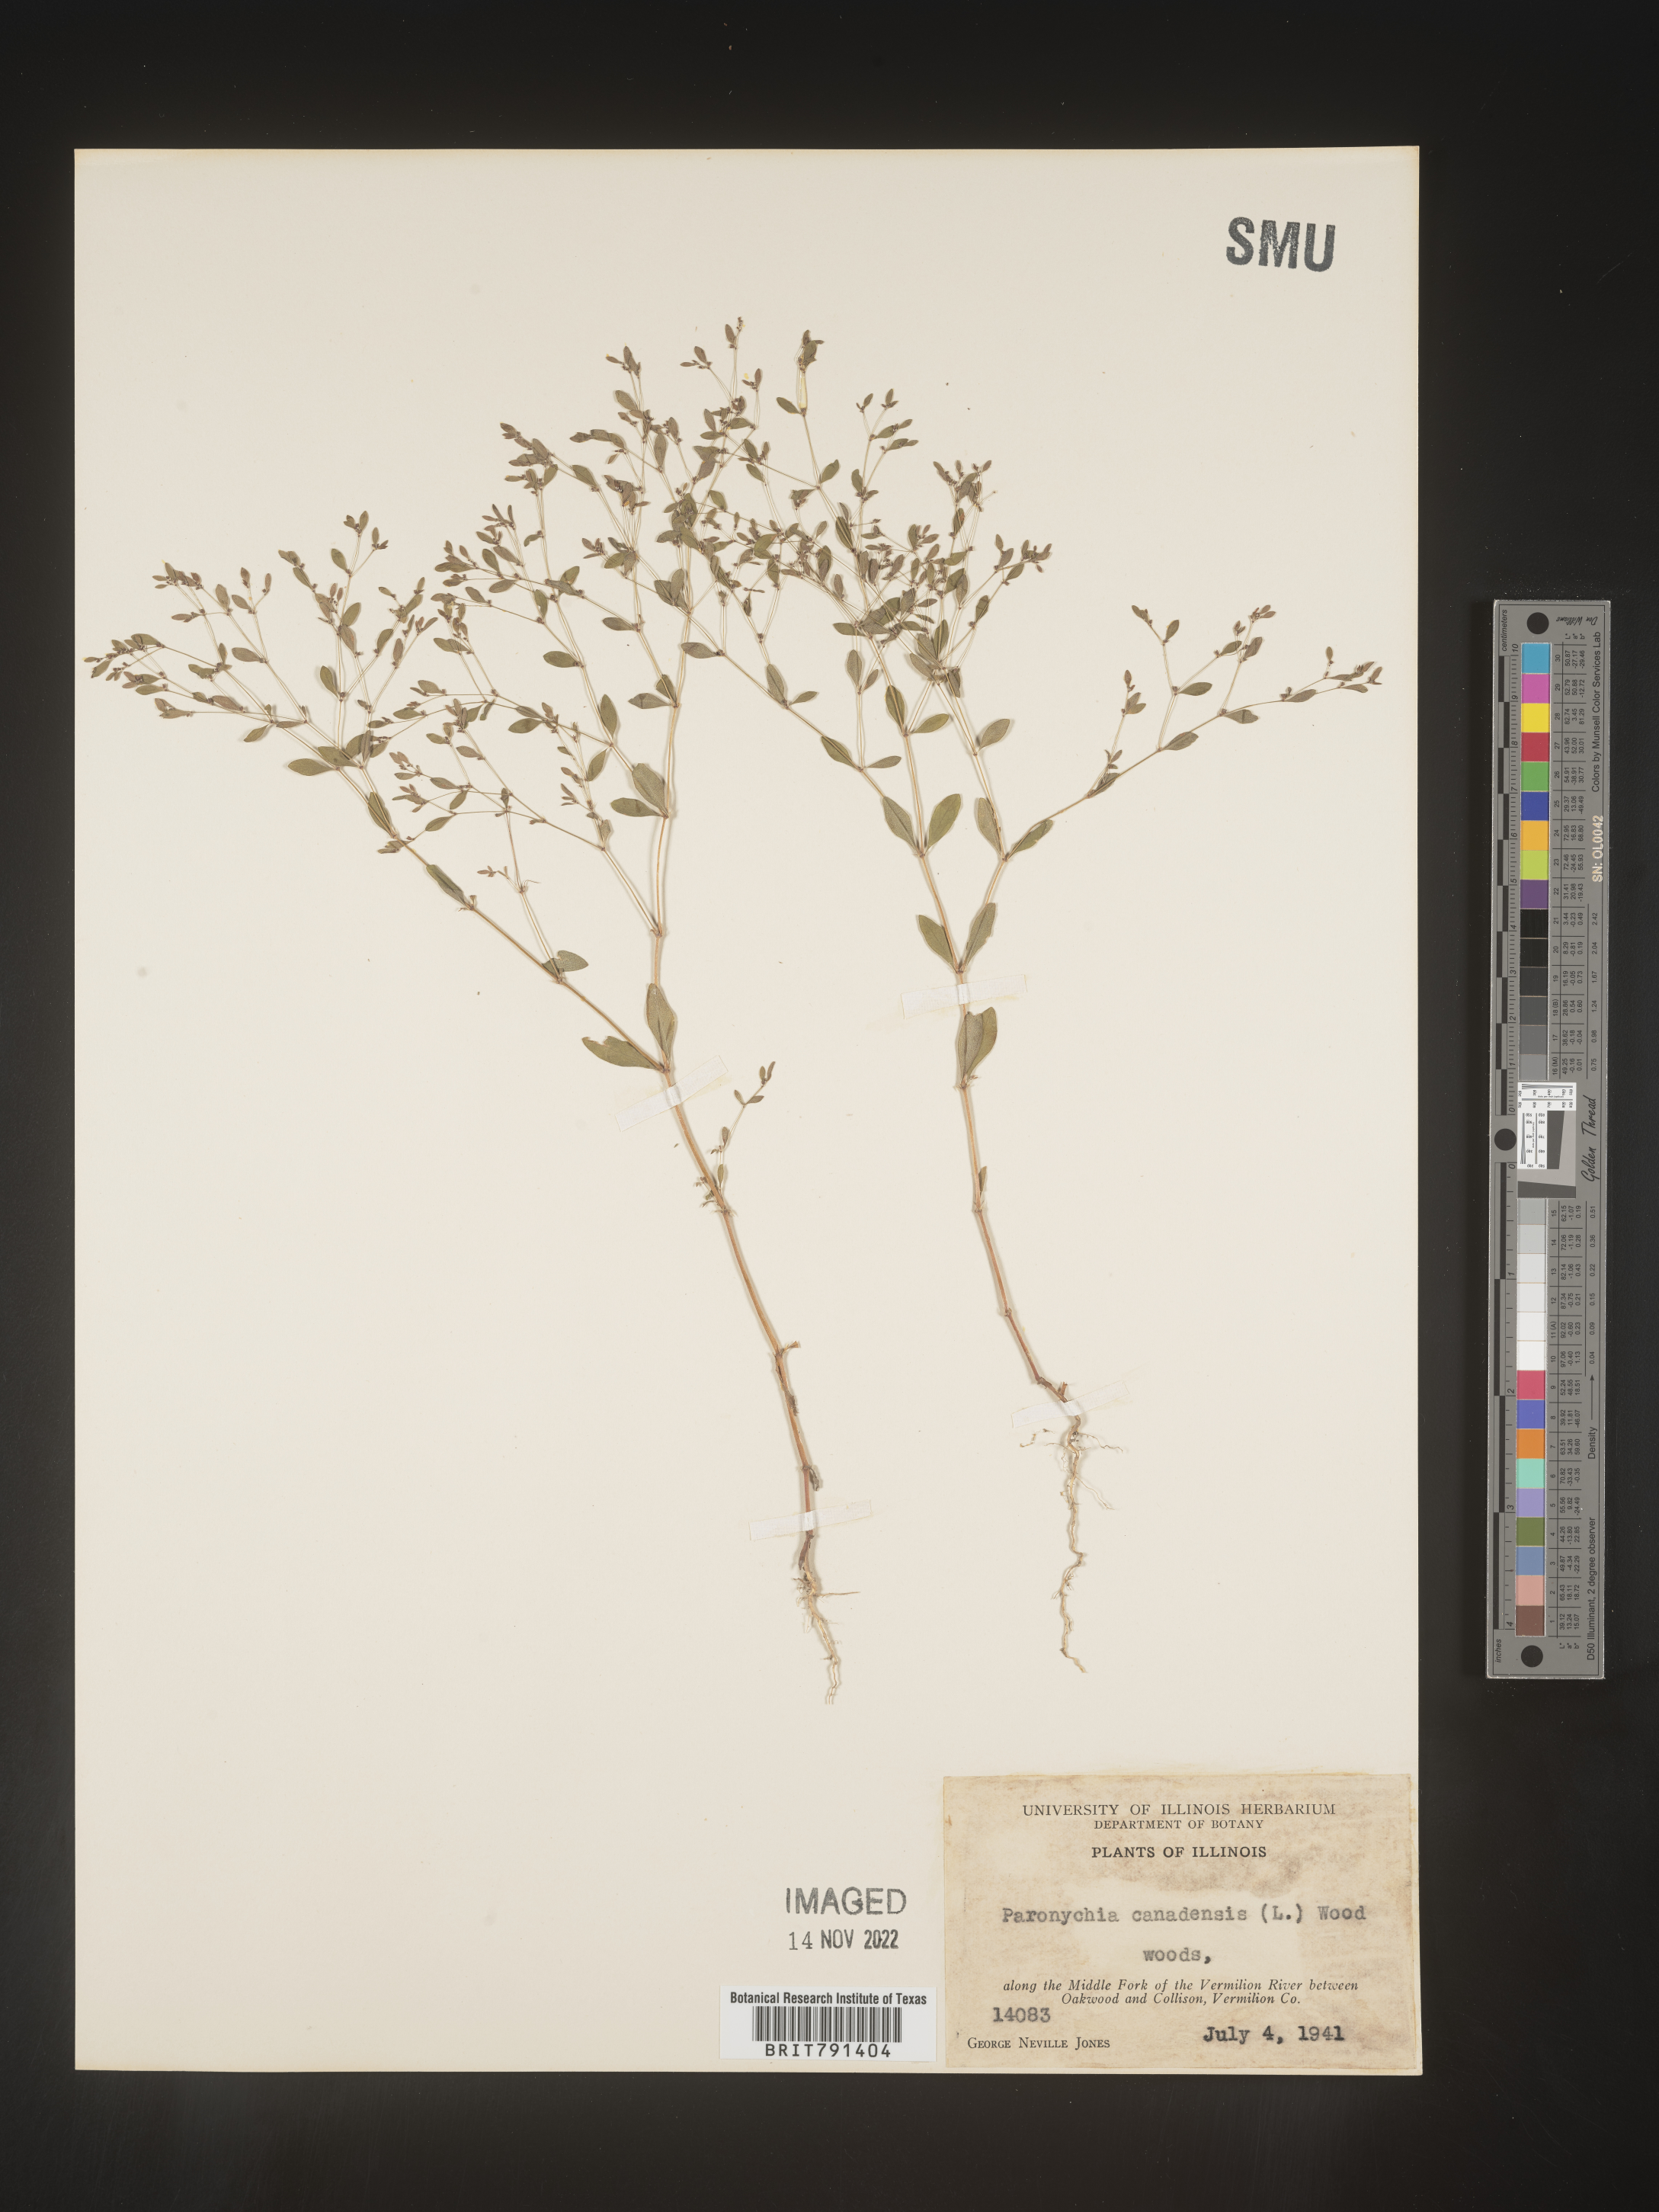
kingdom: Plantae
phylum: Tracheophyta
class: Magnoliopsida
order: Caryophyllales
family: Caryophyllaceae
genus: Paronychia
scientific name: Paronychia canadensis
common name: Canada forked nailwort
